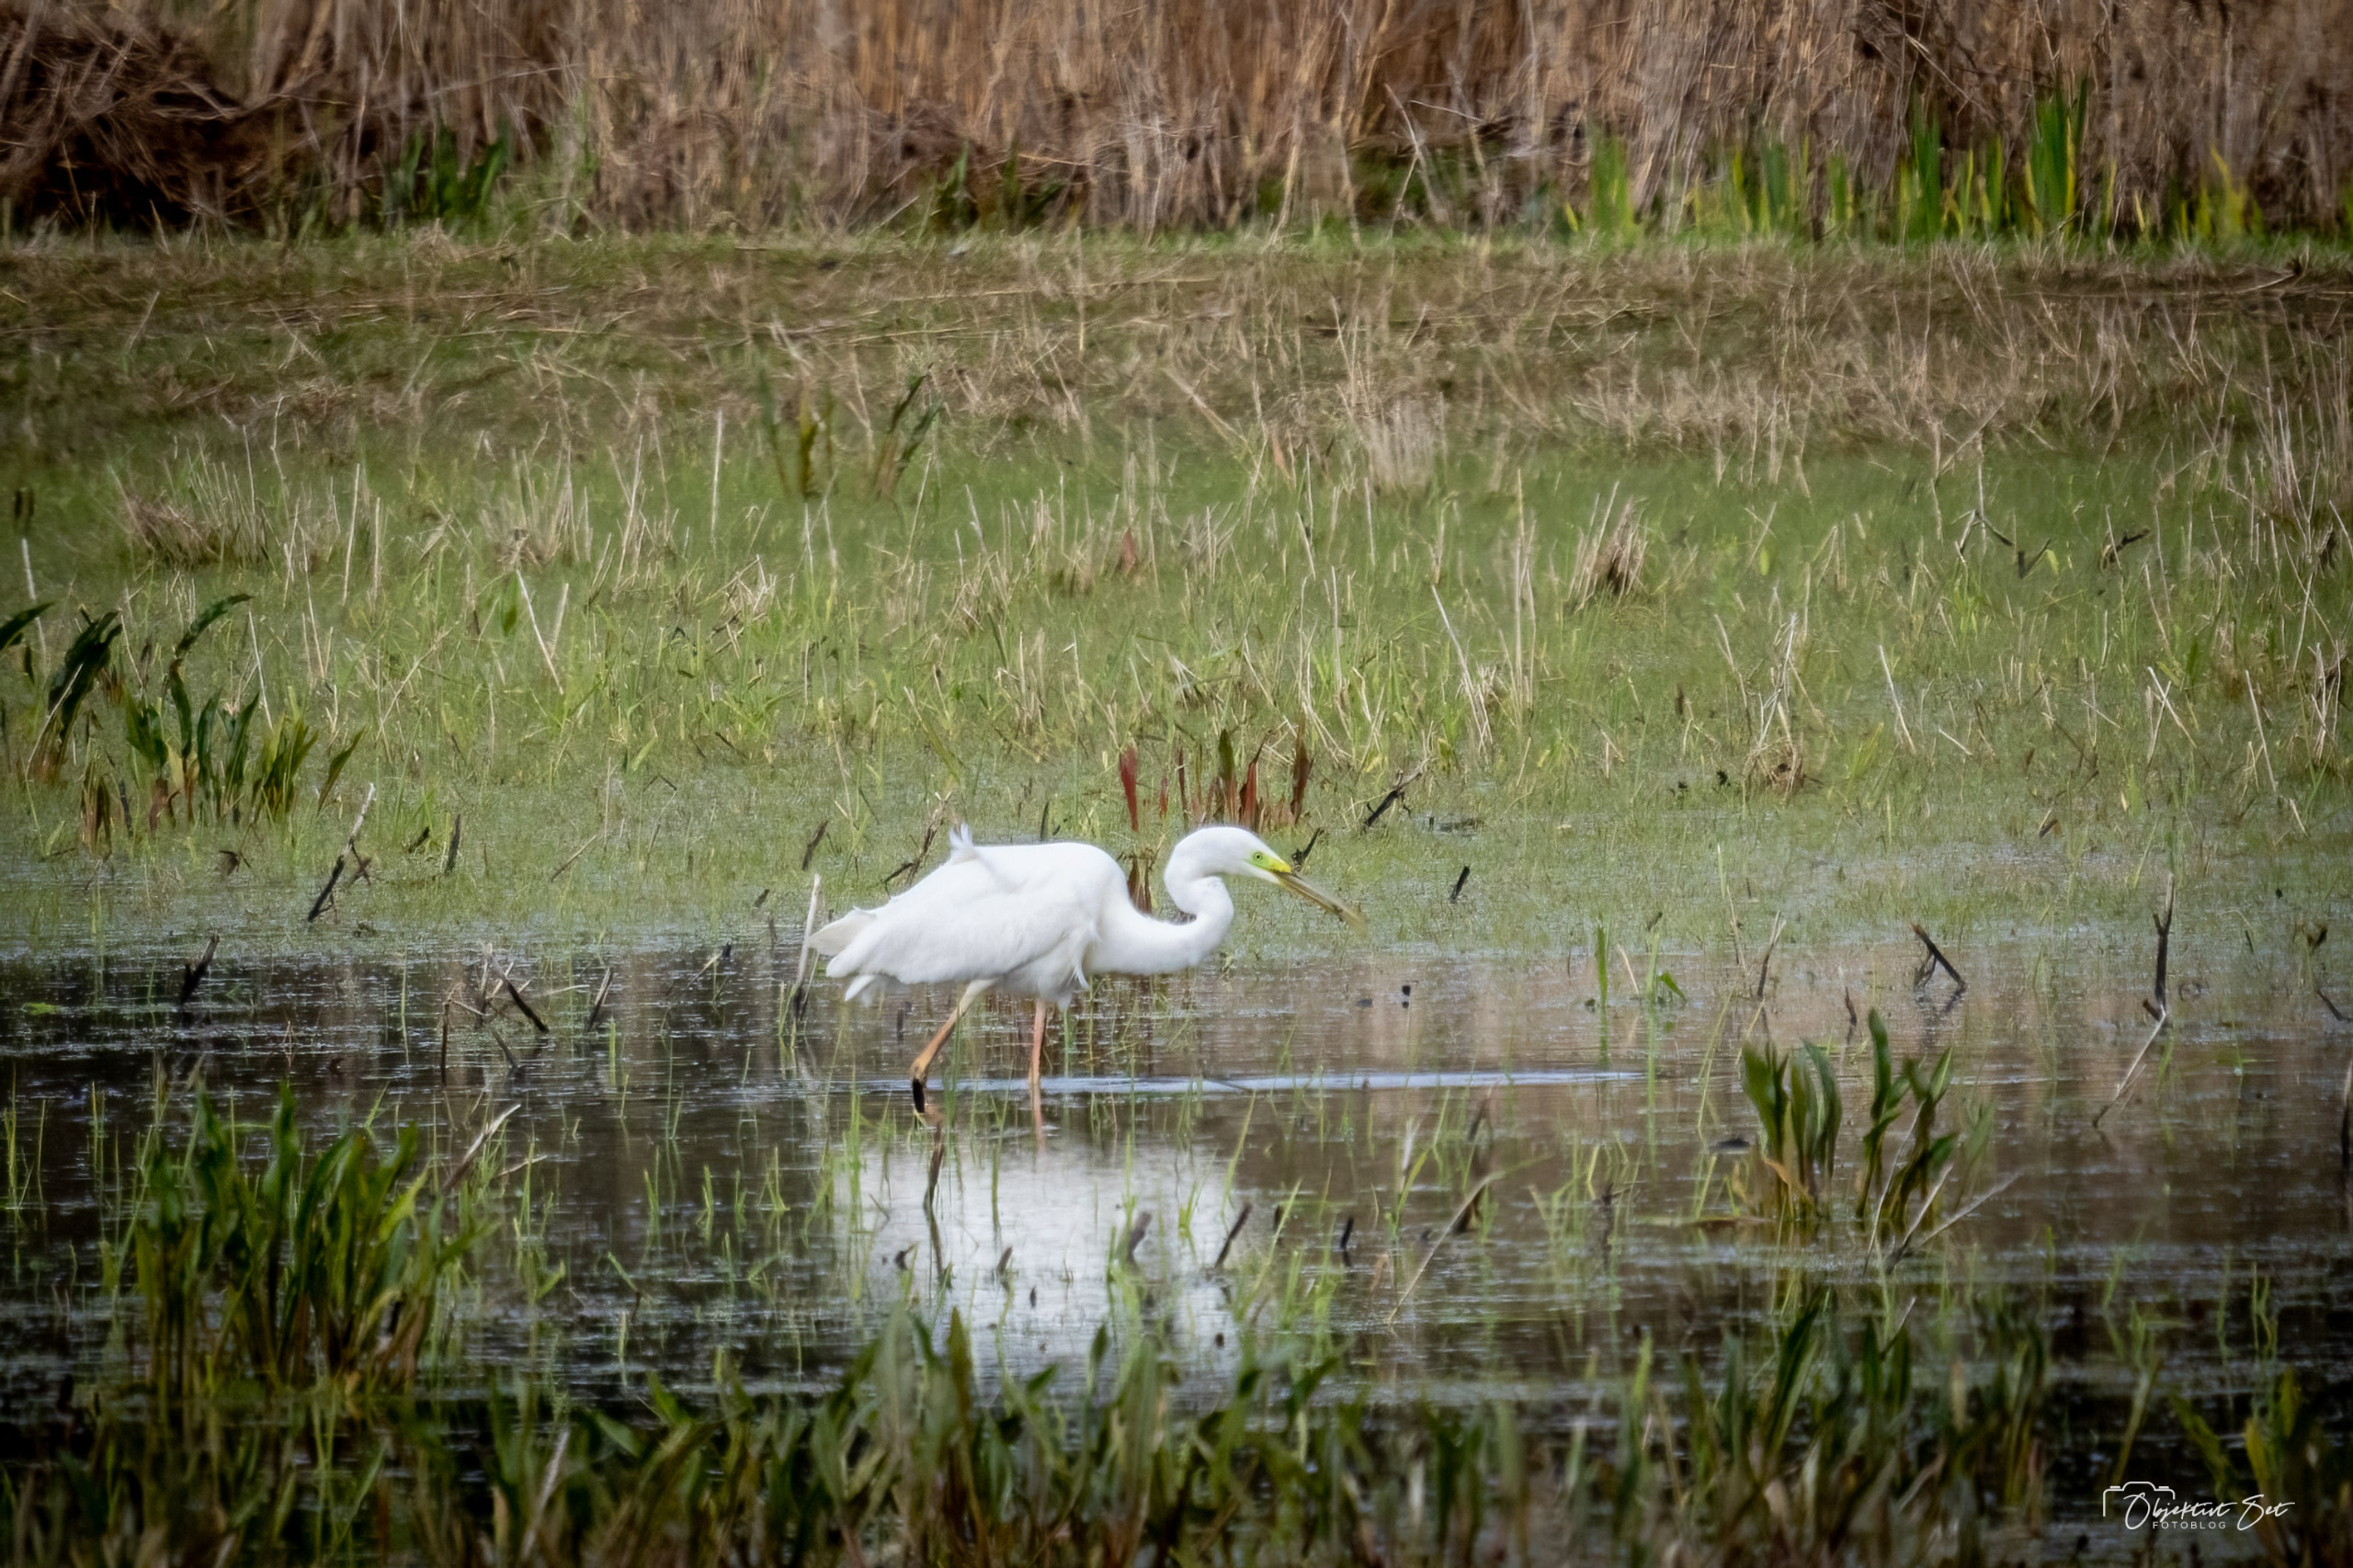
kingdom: Animalia
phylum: Chordata
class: Aves
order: Pelecaniformes
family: Ardeidae
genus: Ardea
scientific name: Ardea alba
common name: Sølvhejre
